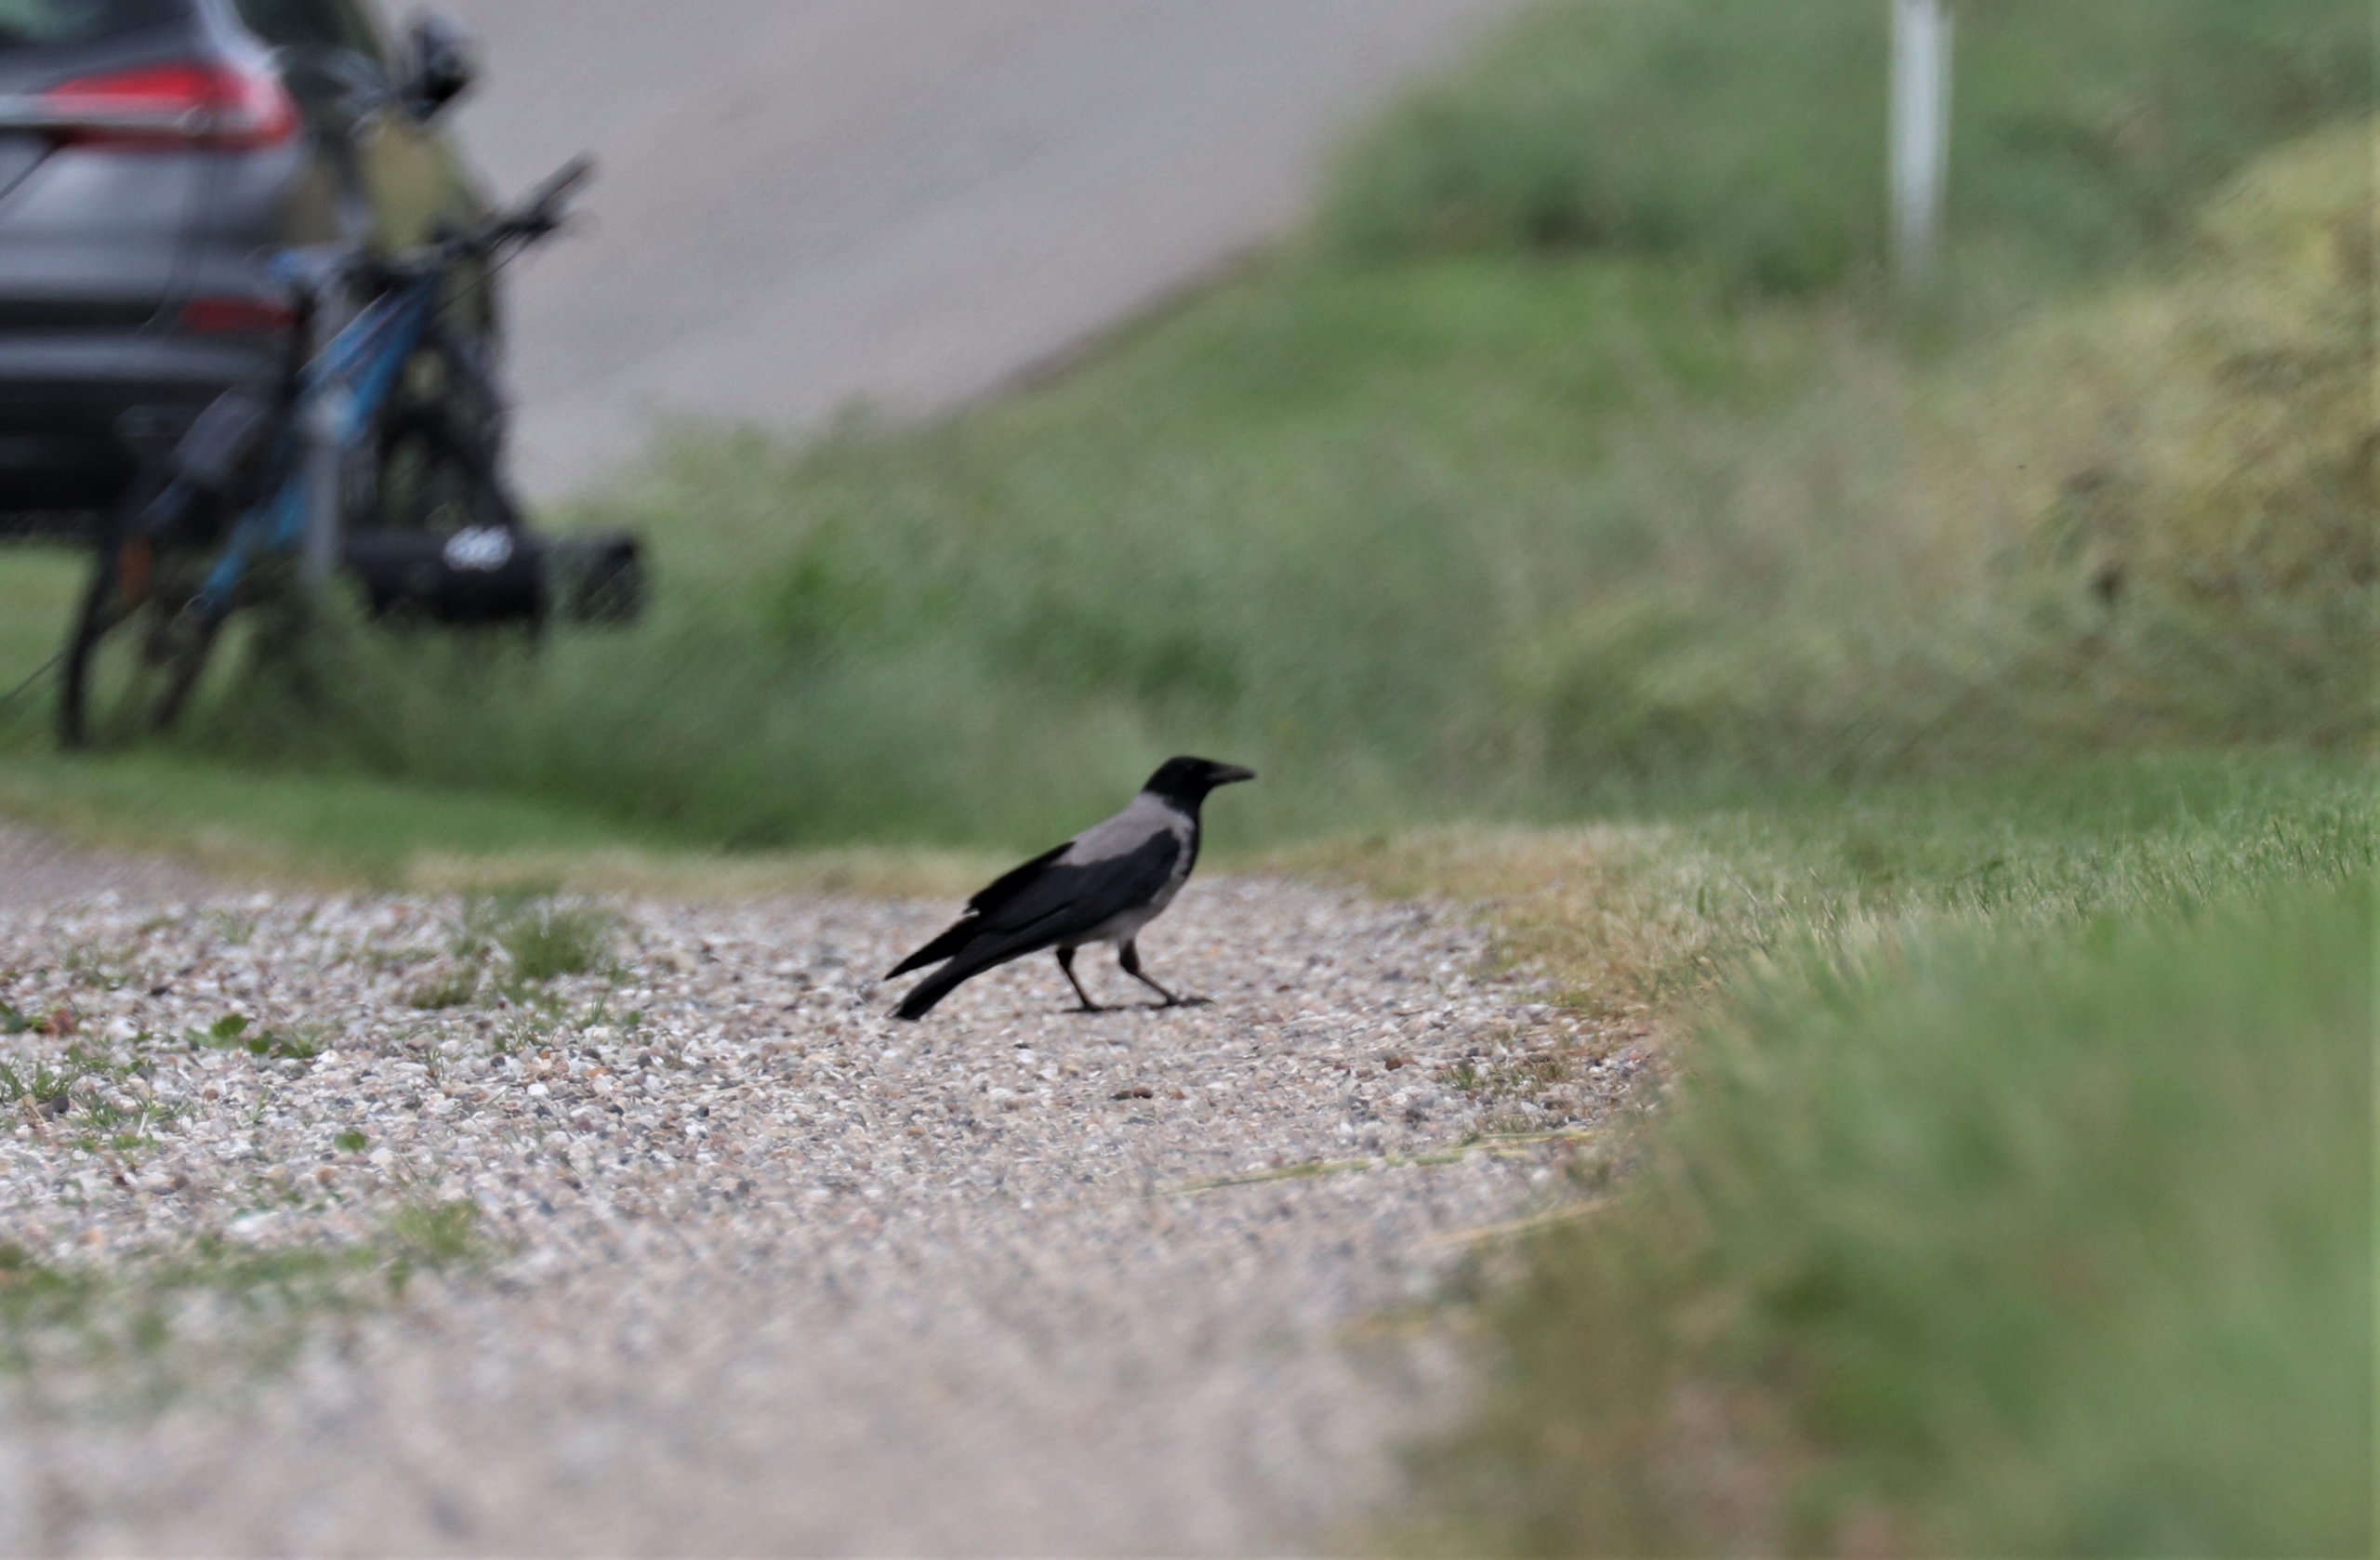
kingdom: Animalia
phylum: Chordata
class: Aves
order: Passeriformes
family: Corvidae
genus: Corvus
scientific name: Corvus cornix
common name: Gråkrage
